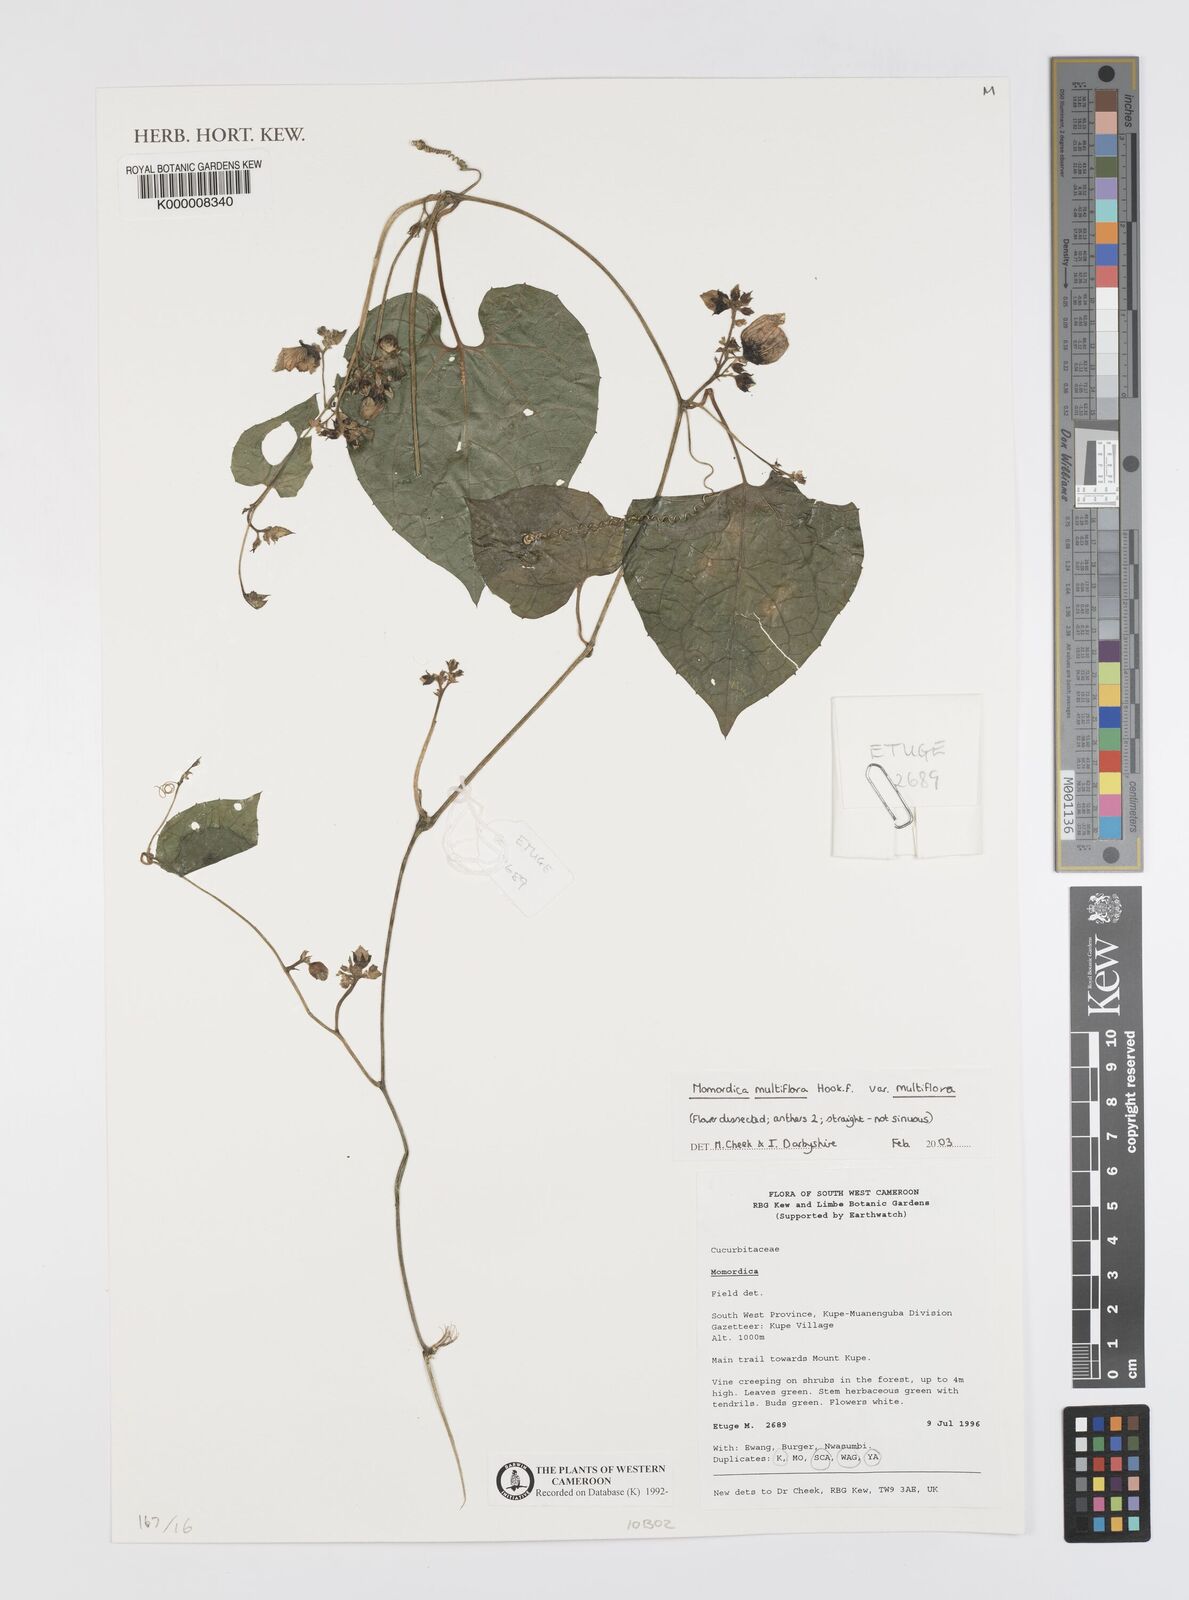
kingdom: Plantae
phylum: Tracheophyta
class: Magnoliopsida
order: Cucurbitales
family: Cucurbitaceae
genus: Momordica
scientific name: Momordica multiflora
